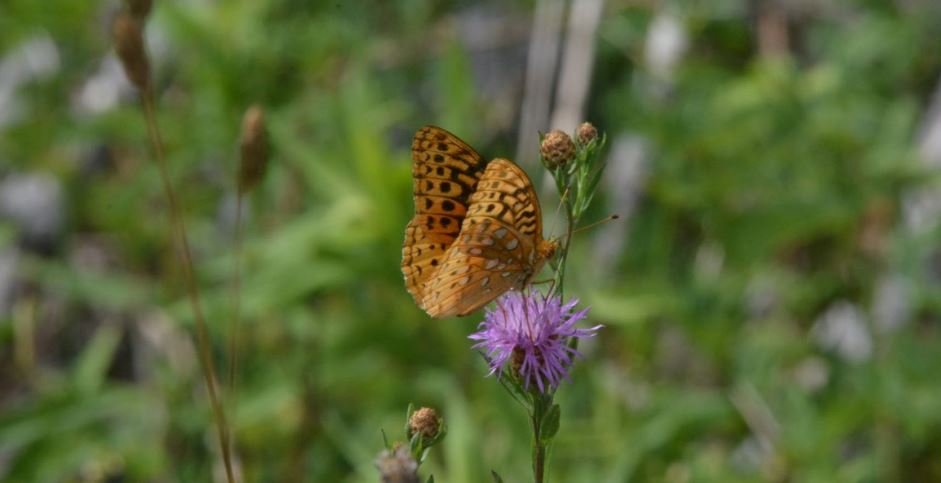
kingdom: Animalia
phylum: Arthropoda
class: Insecta
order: Lepidoptera
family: Nymphalidae
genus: Speyeria
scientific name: Speyeria cybele
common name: Great Spangled Fritillary
